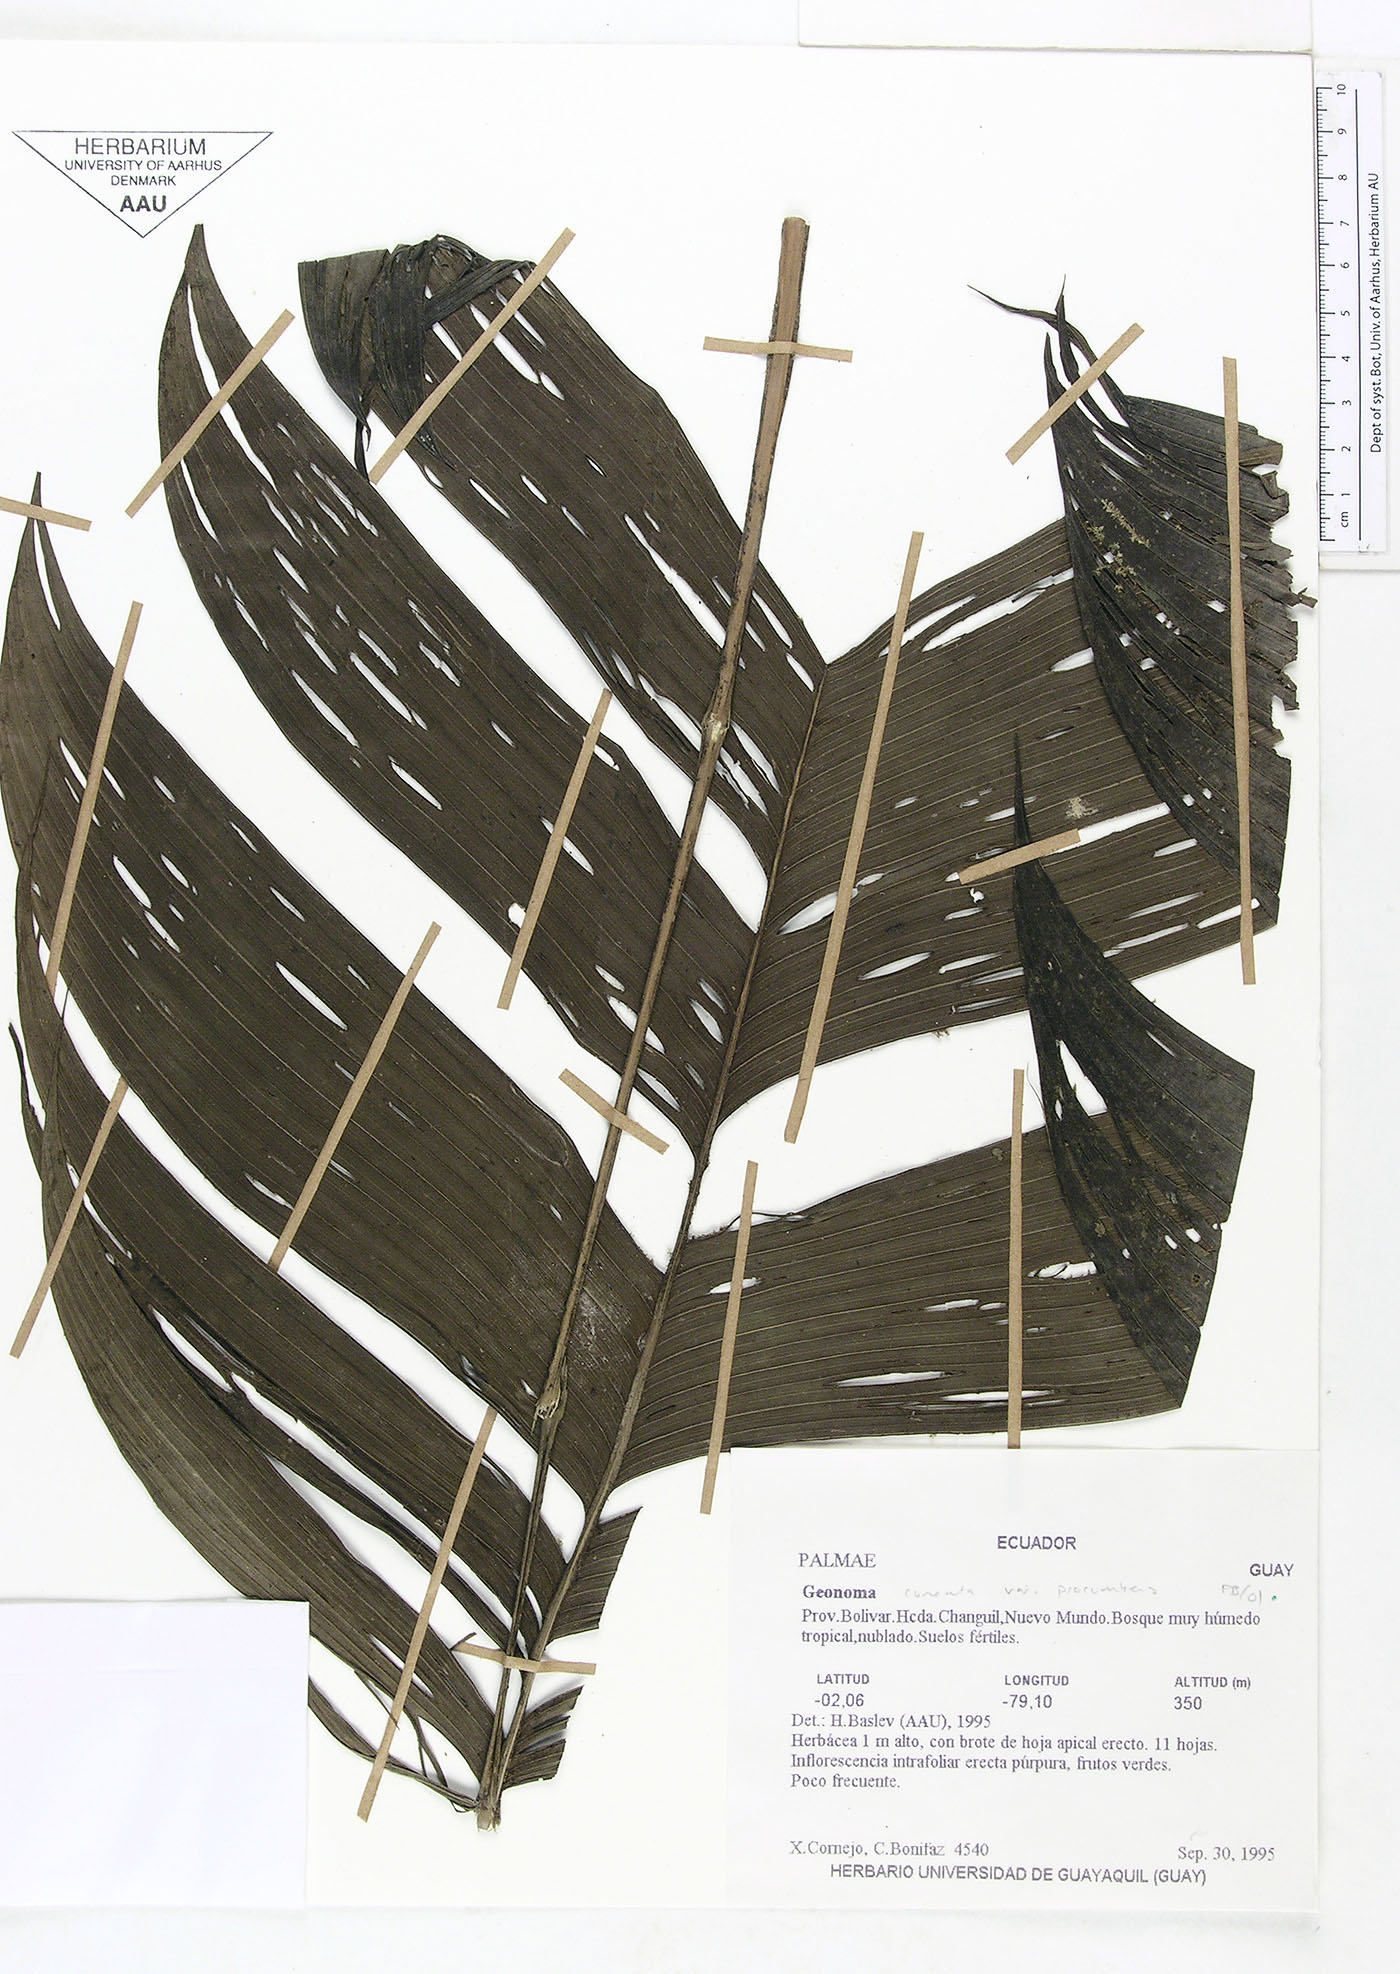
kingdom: Plantae
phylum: Tracheophyta
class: Liliopsida
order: Arecales
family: Arecaceae
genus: Geonoma
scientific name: Geonoma cuneata
